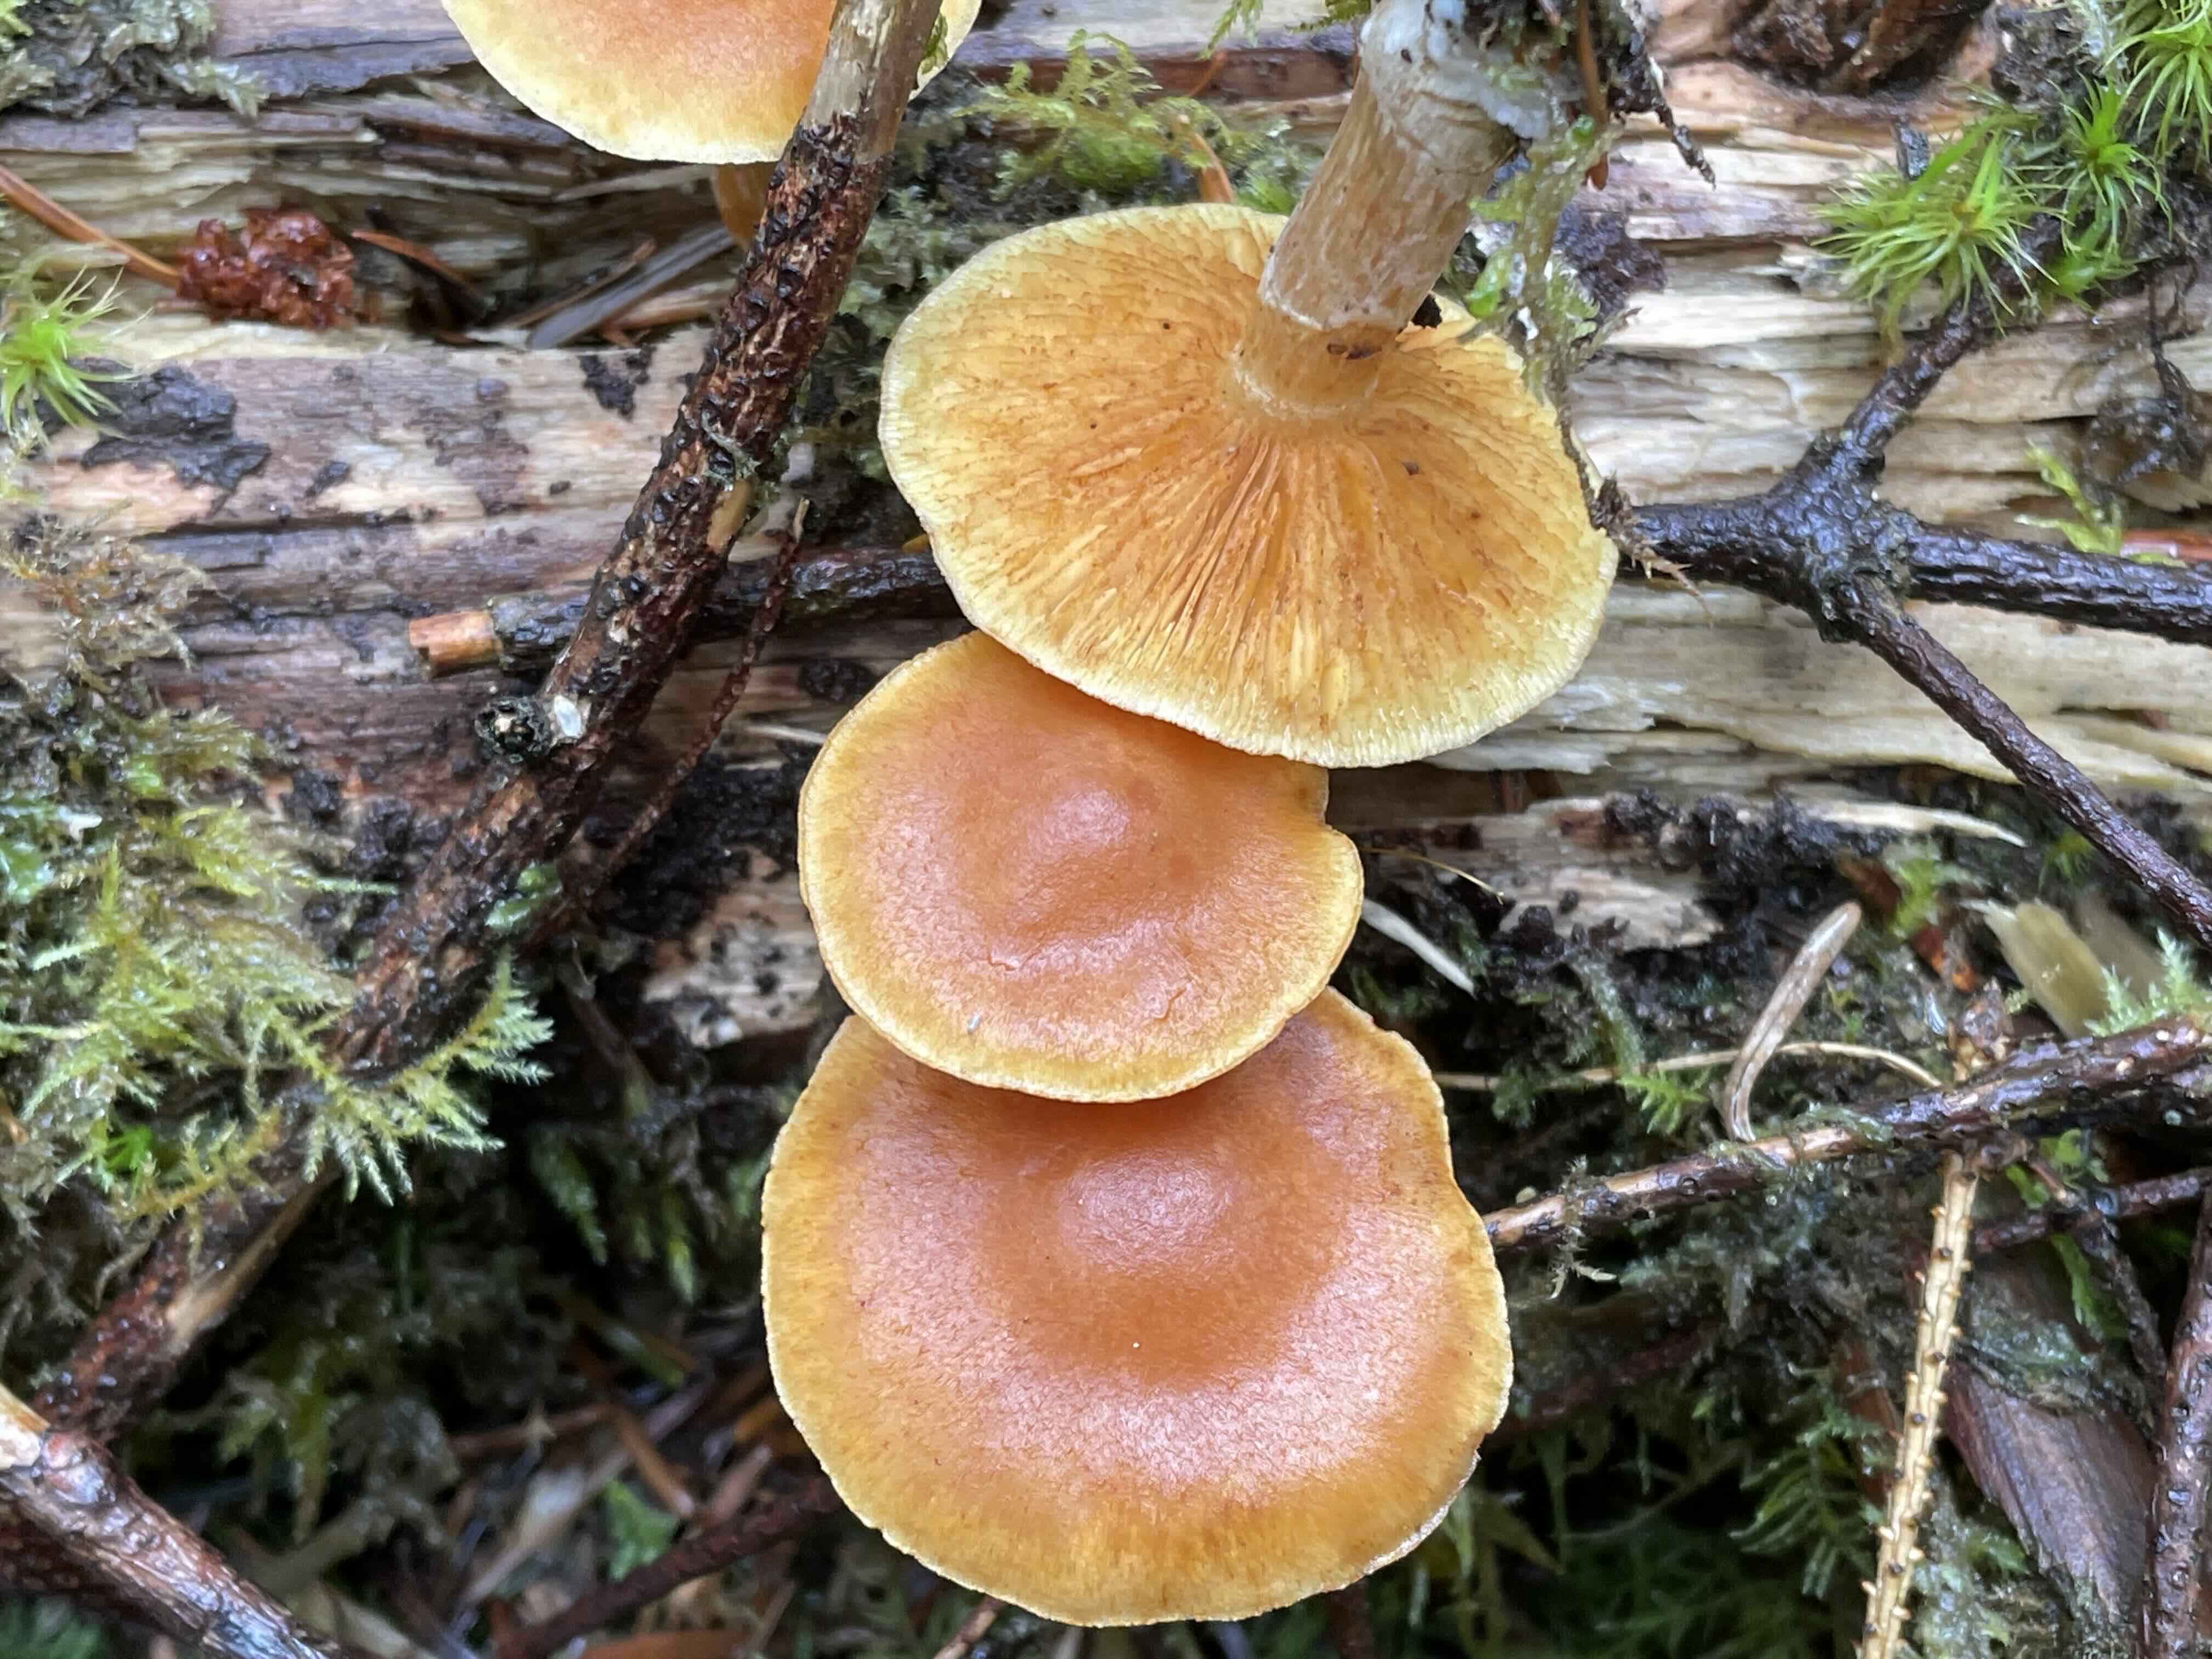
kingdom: Fungi
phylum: Basidiomycota
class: Agaricomycetes
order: Agaricales
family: Hymenogastraceae
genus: Gymnopilus
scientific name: Gymnopilus penetrans
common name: plettet flammehat
